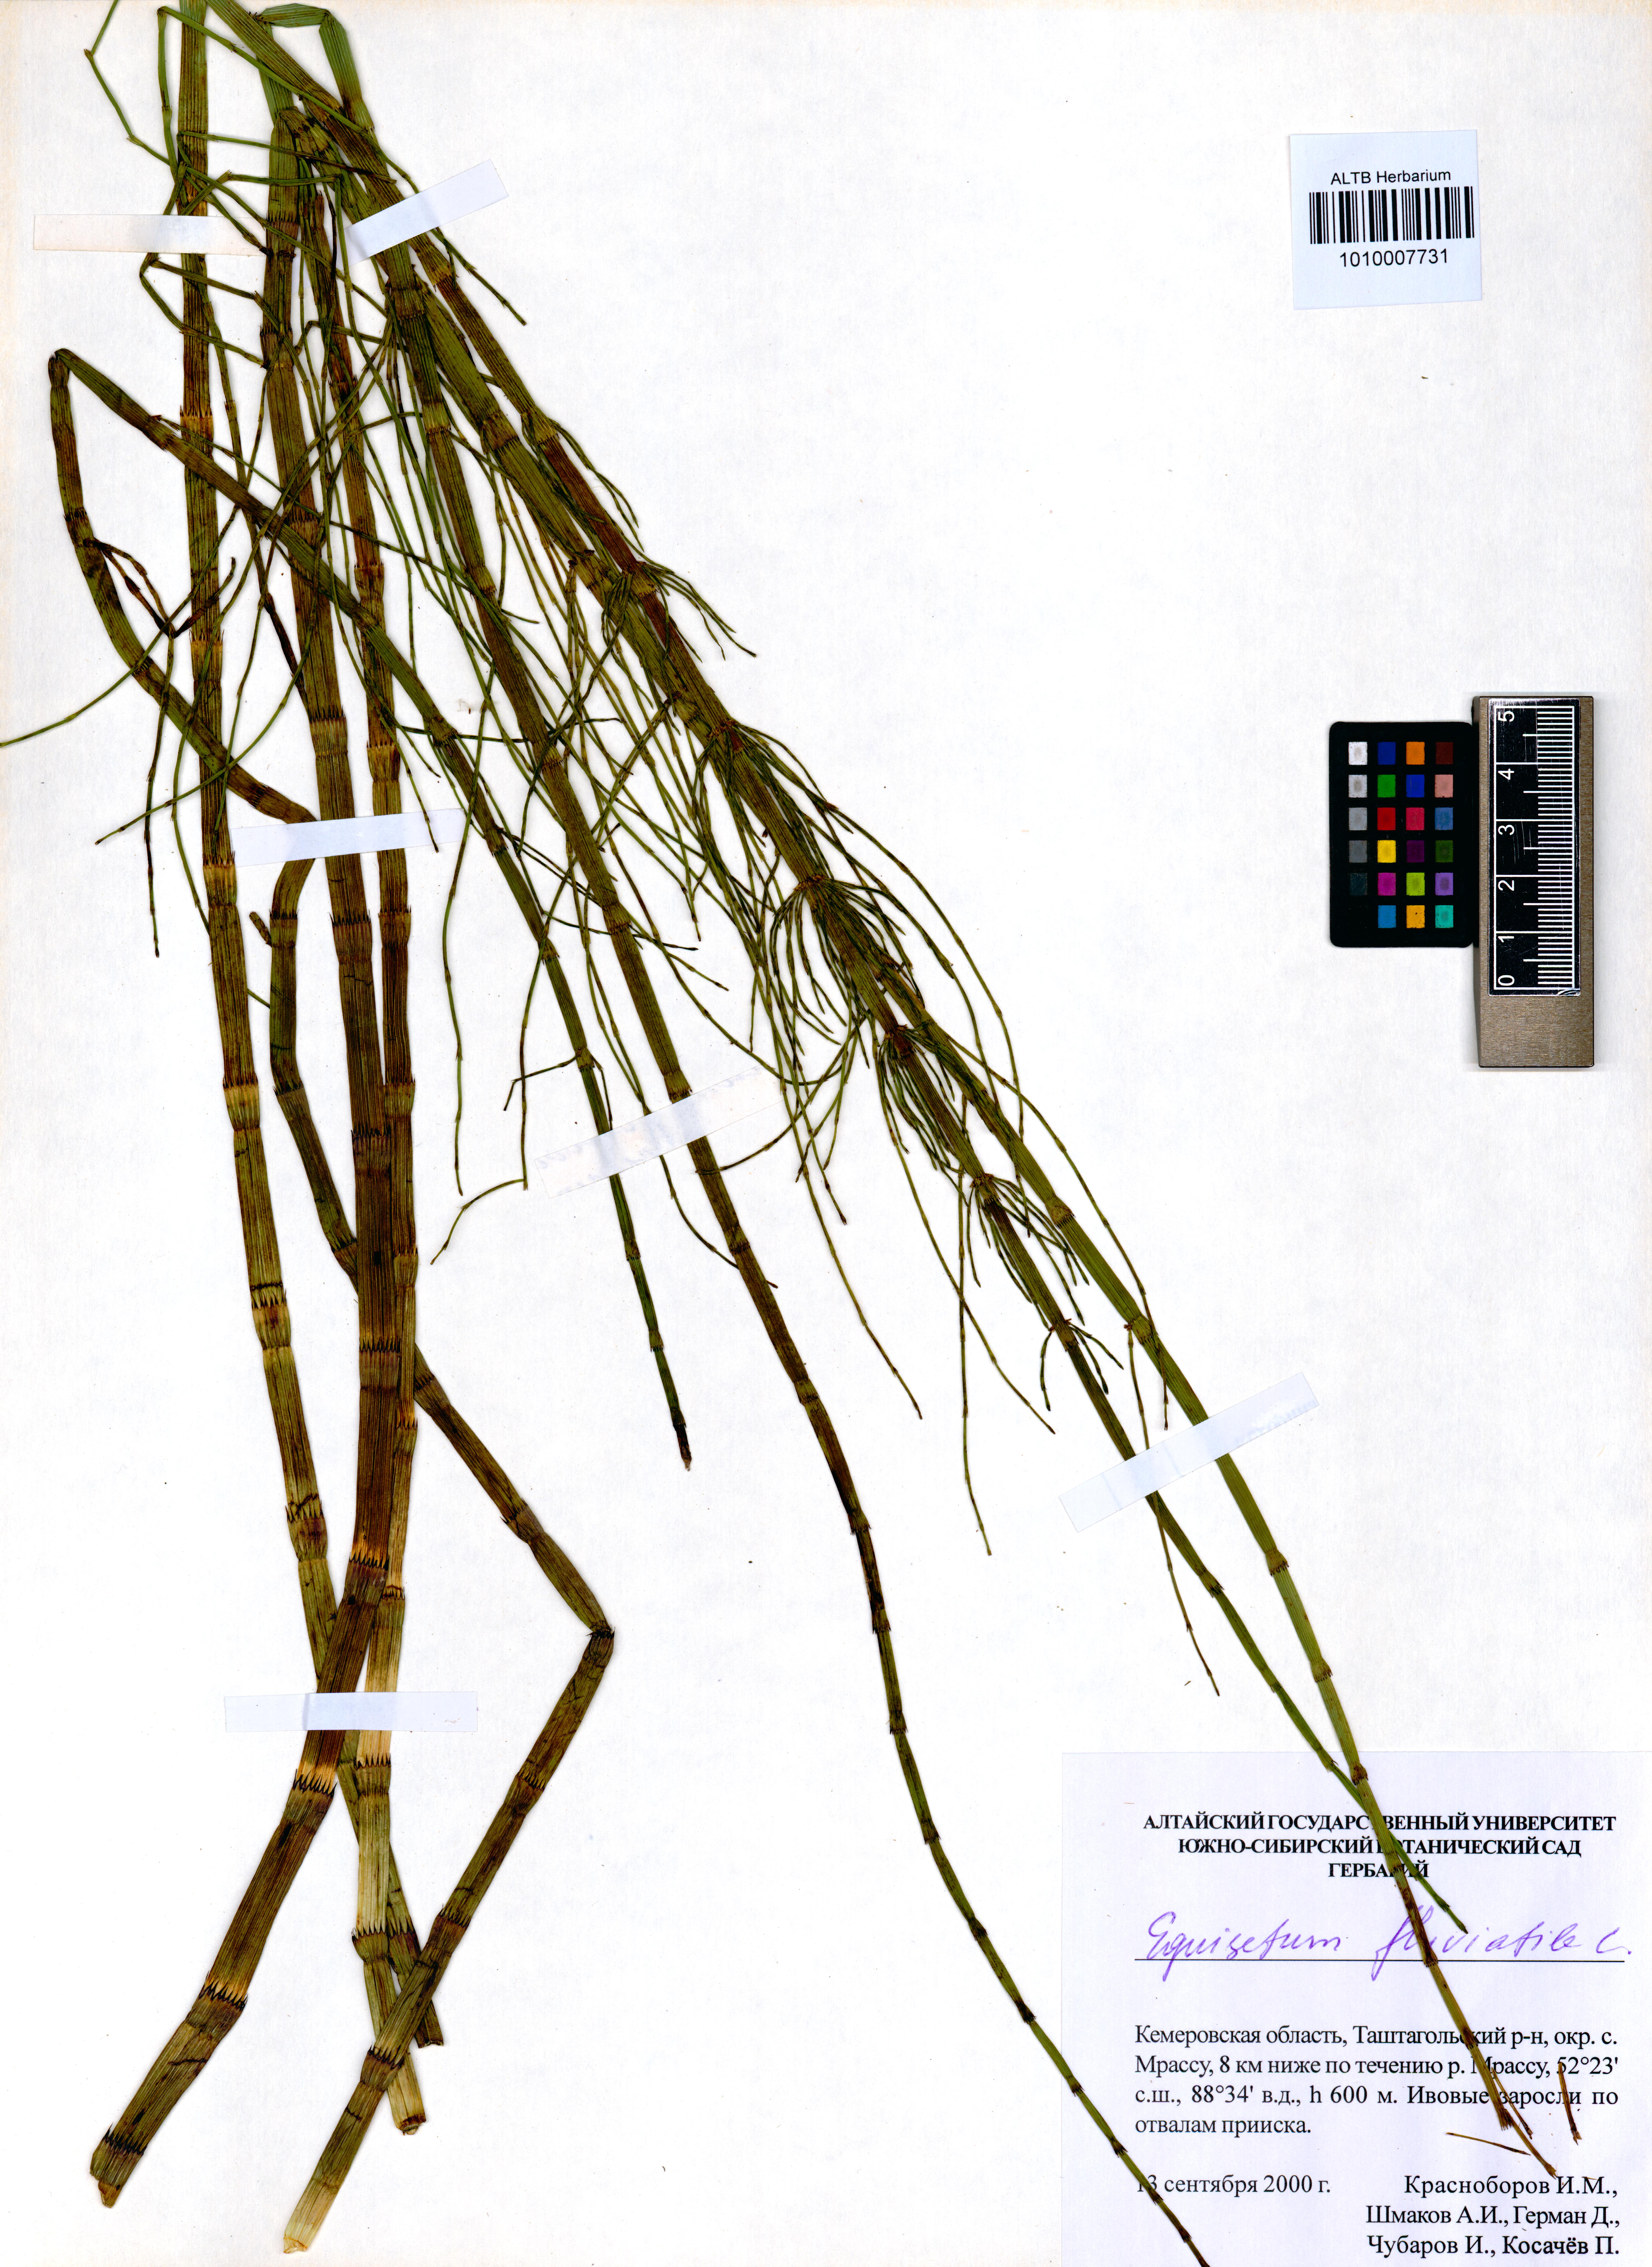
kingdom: Plantae
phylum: Tracheophyta
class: Polypodiopsida
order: Equisetales
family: Equisetaceae
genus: Equisetum
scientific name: Equisetum fluviatile
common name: Water horsetail
